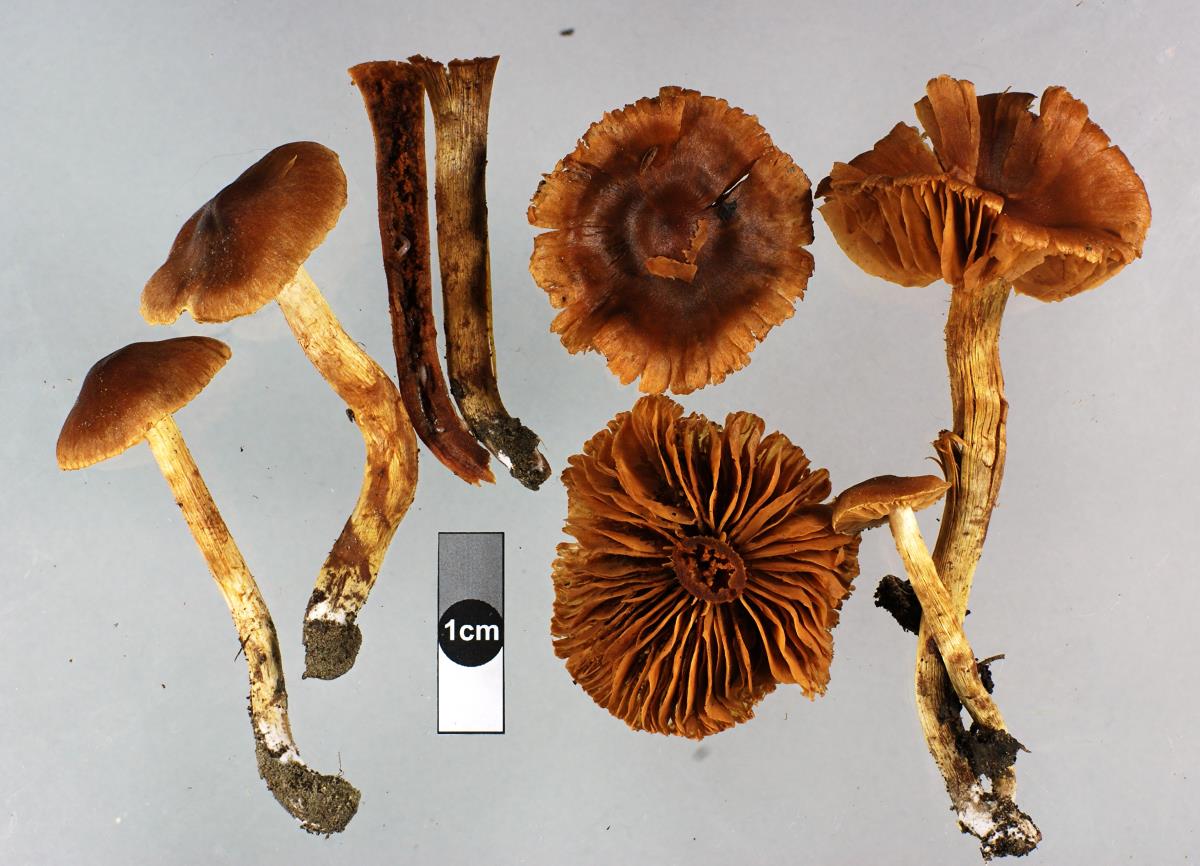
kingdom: Fungi
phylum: Basidiomycota
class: Agaricomycetes
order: Agaricales
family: Cortinariaceae
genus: Cortinarius
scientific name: Cortinarius paludosaniosus
